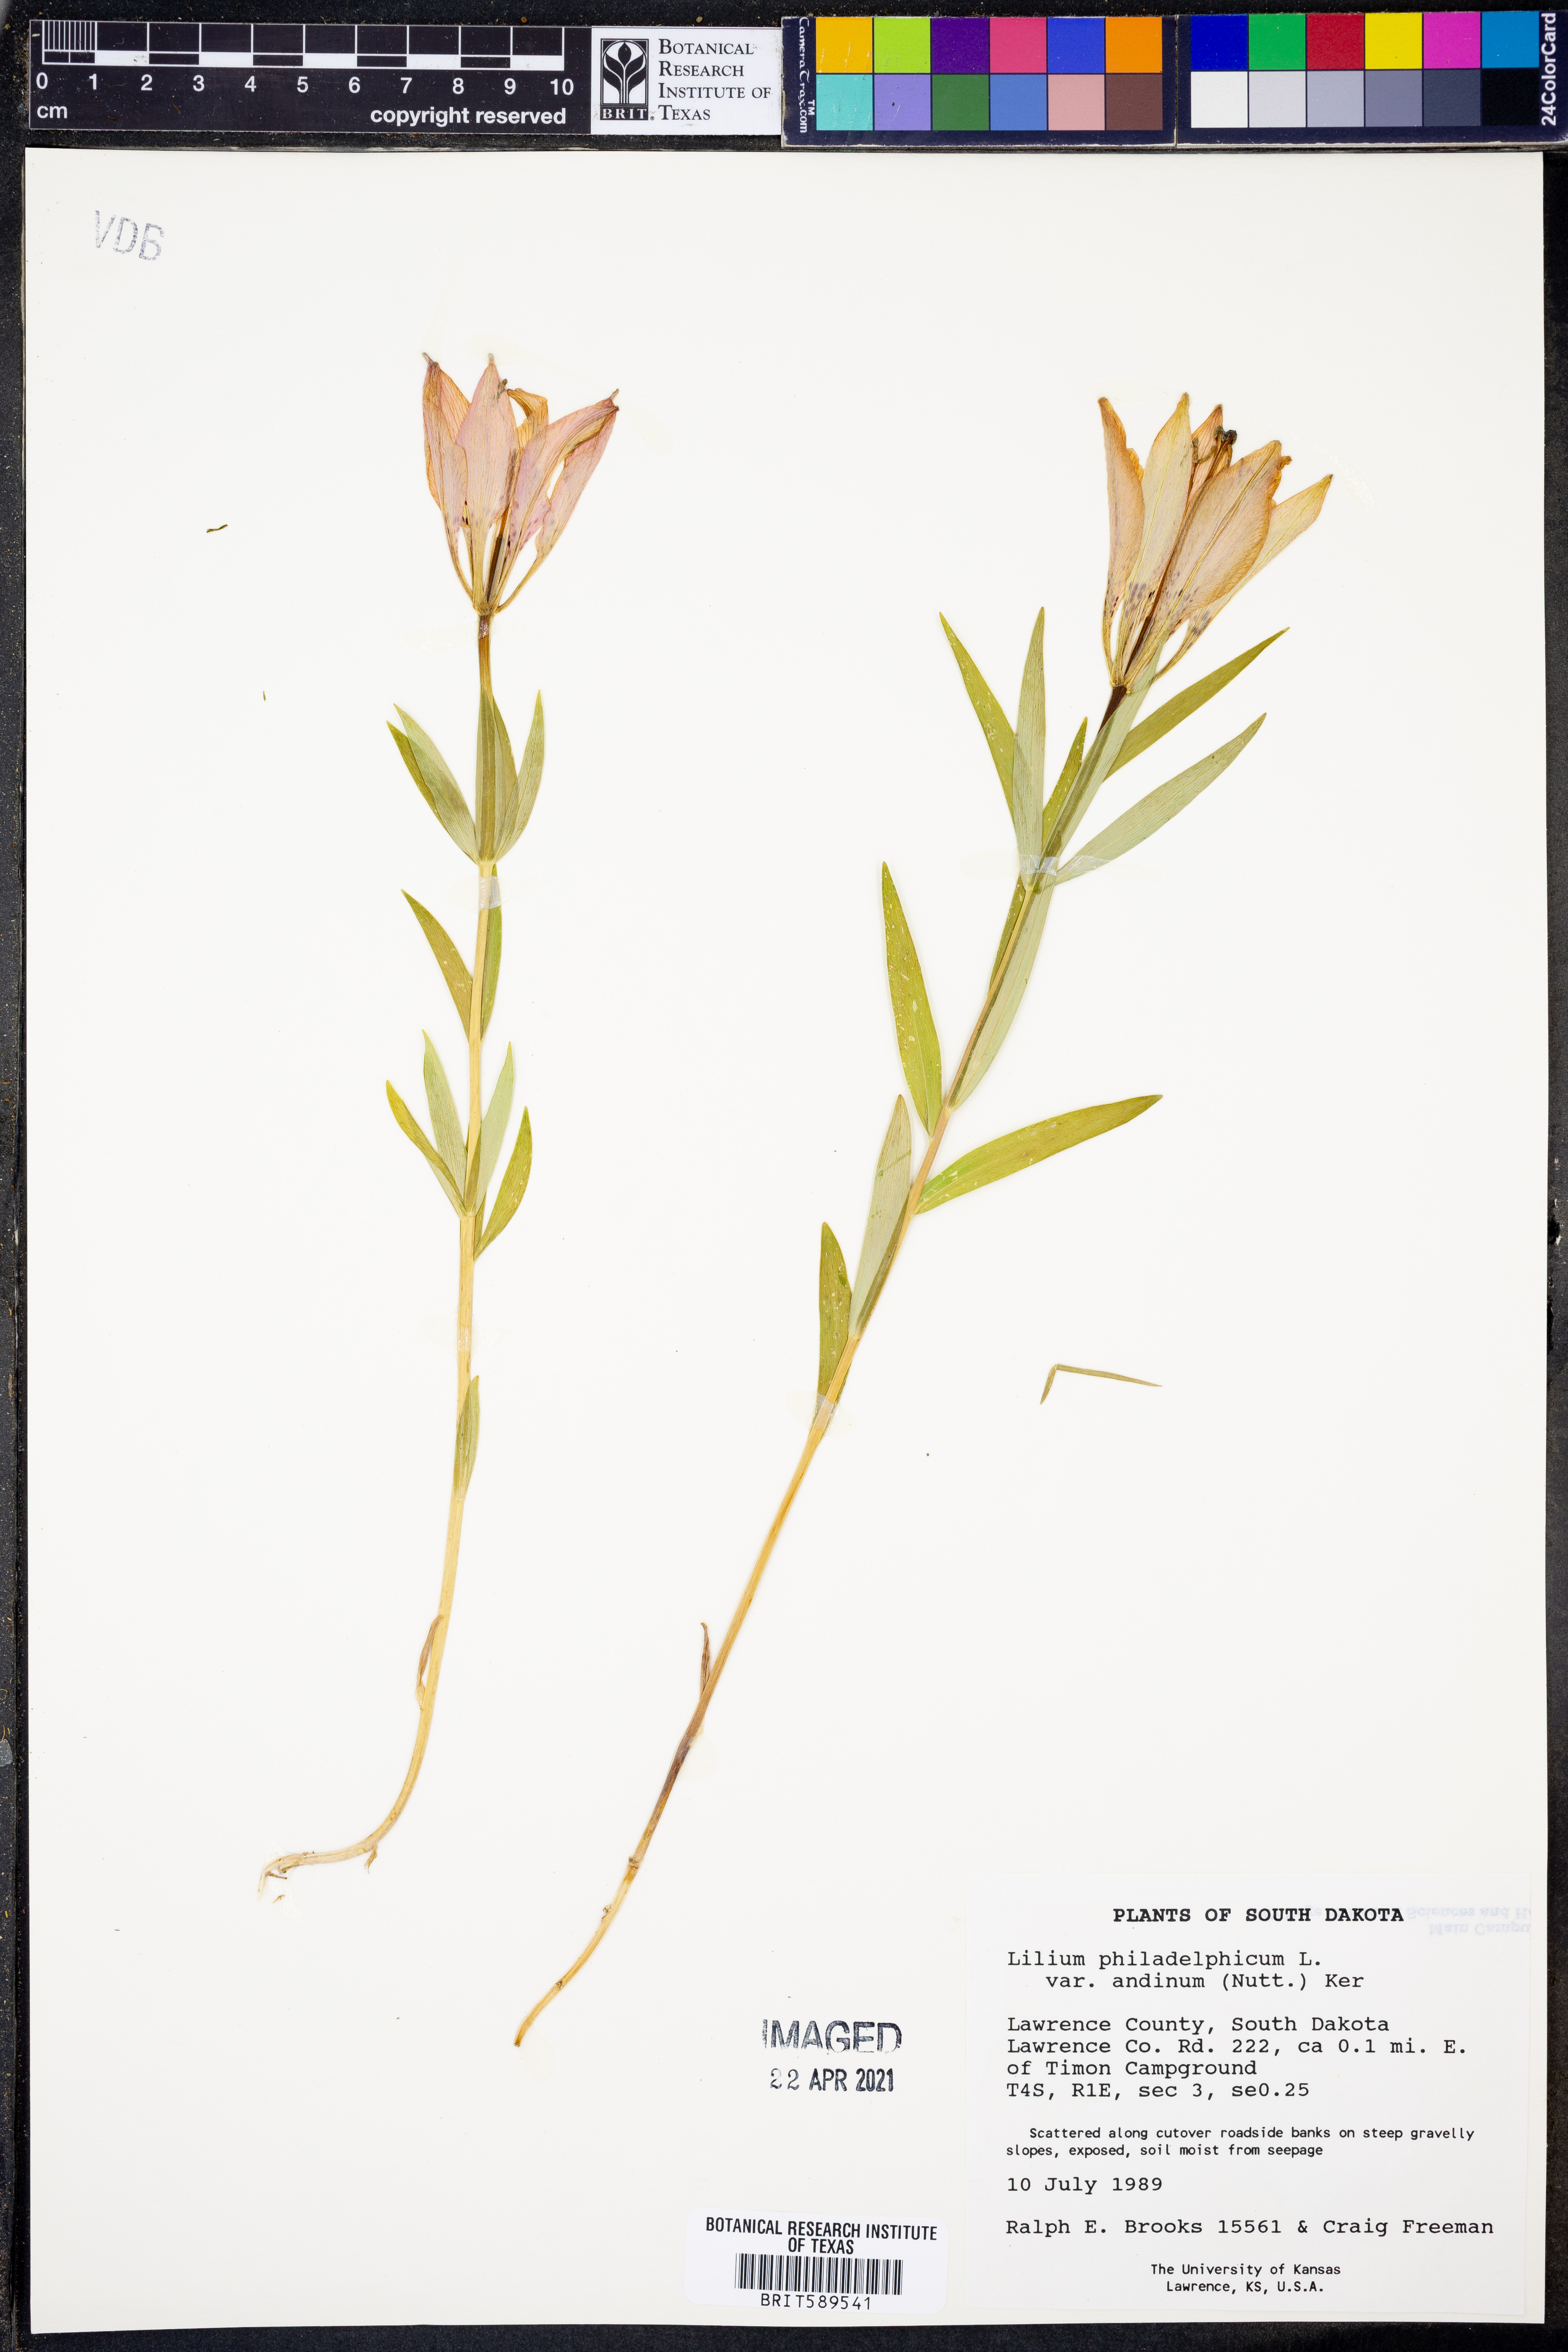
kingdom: Plantae
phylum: Tracheophyta
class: Liliopsida
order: Liliales
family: Liliaceae
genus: Lilium
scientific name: Lilium philadelphicum
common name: Red lily
